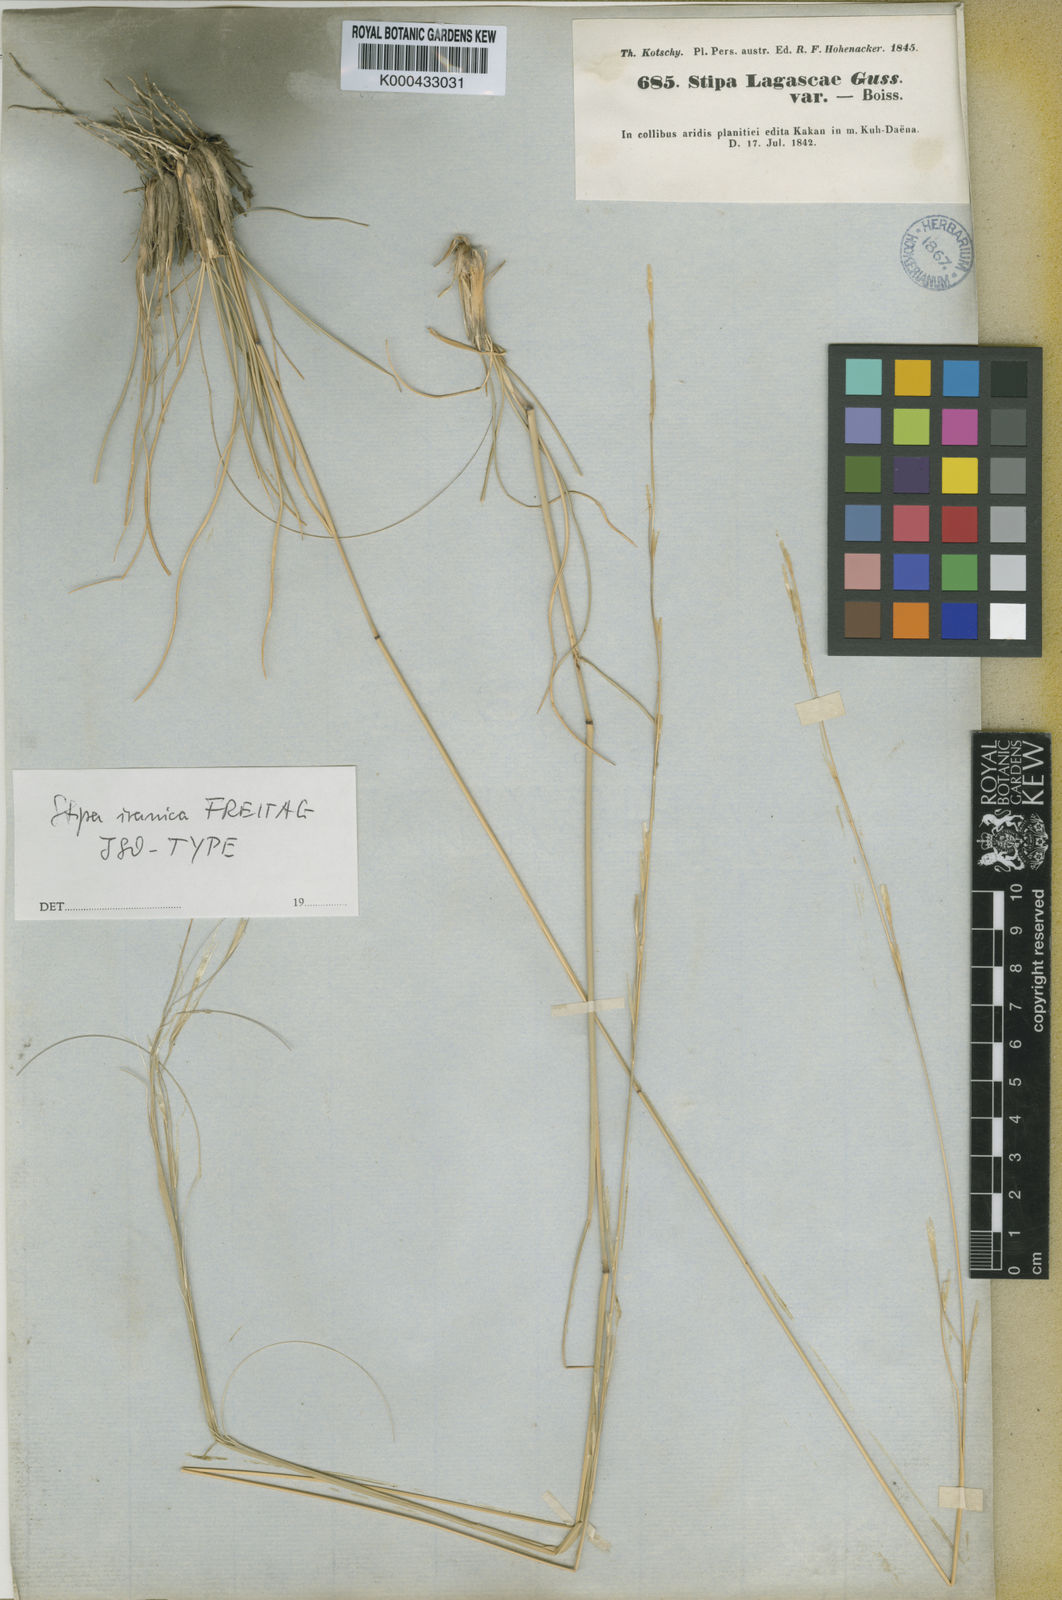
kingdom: Plantae
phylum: Tracheophyta
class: Liliopsida
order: Poales
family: Poaceae
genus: Stipa
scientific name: Stipa iranica
